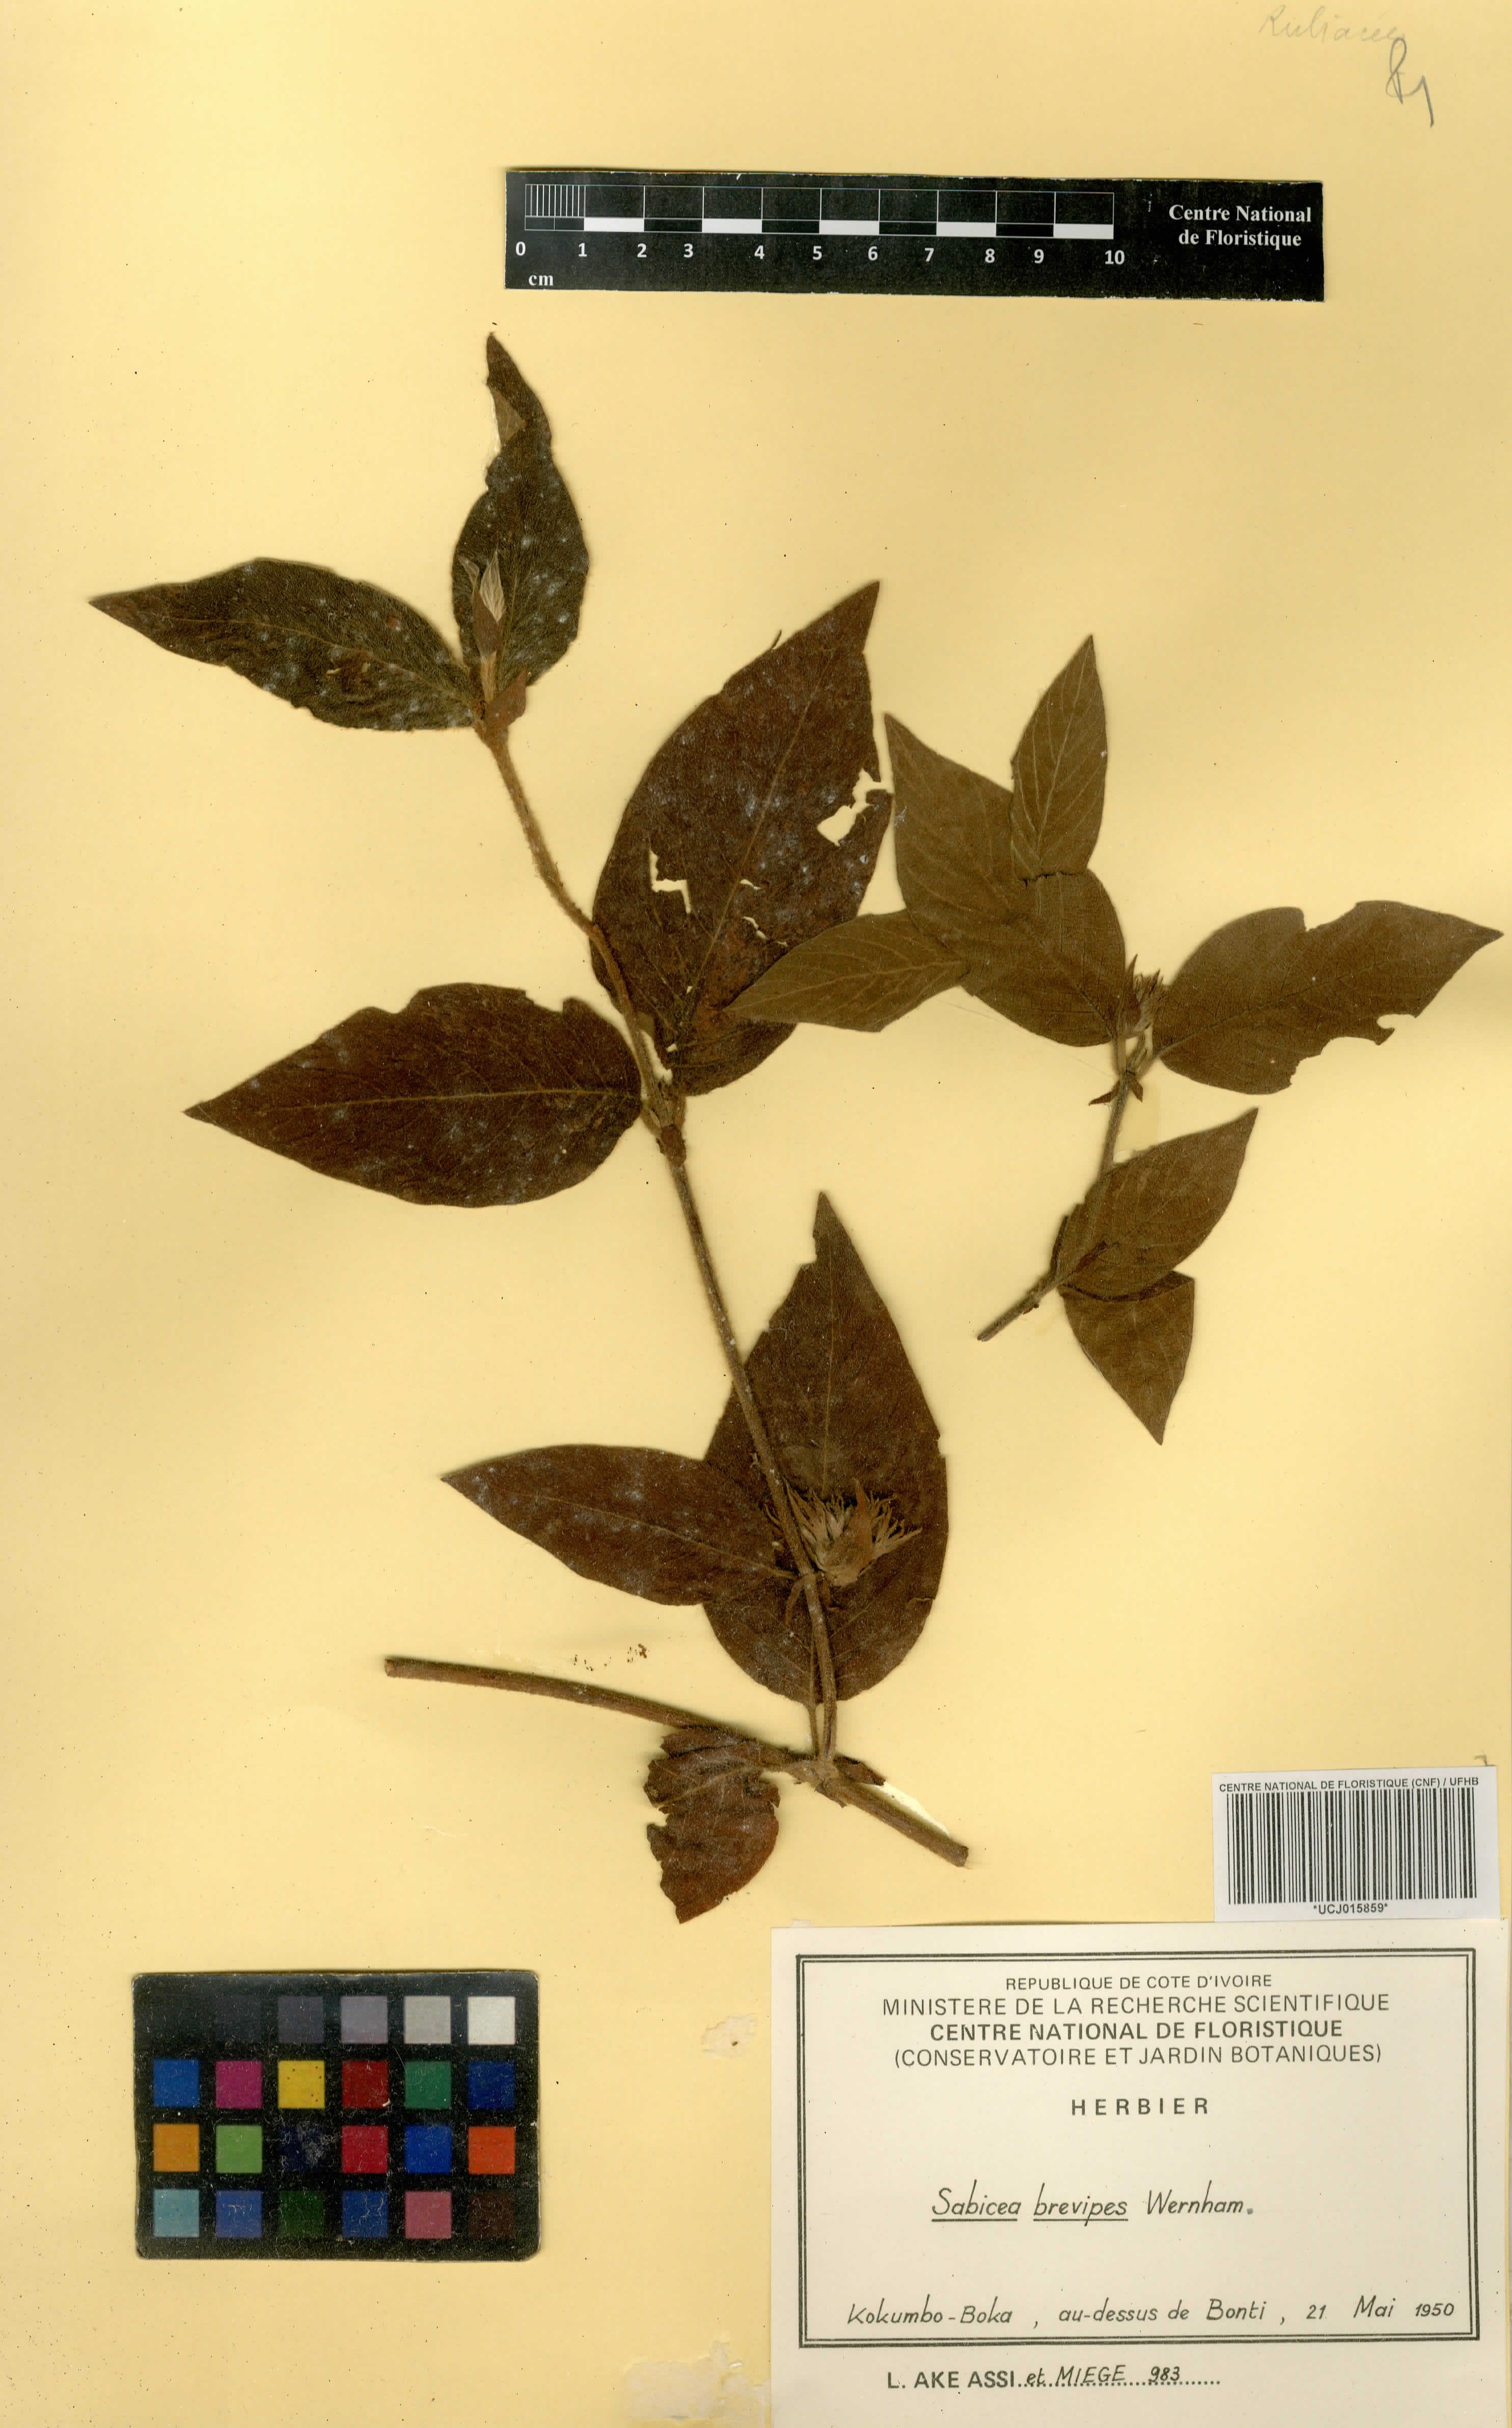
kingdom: Plantae
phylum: Tracheophyta
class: Magnoliopsida
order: Gentianales
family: Rubiaceae
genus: Sabicea
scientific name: Sabicea brevipes
